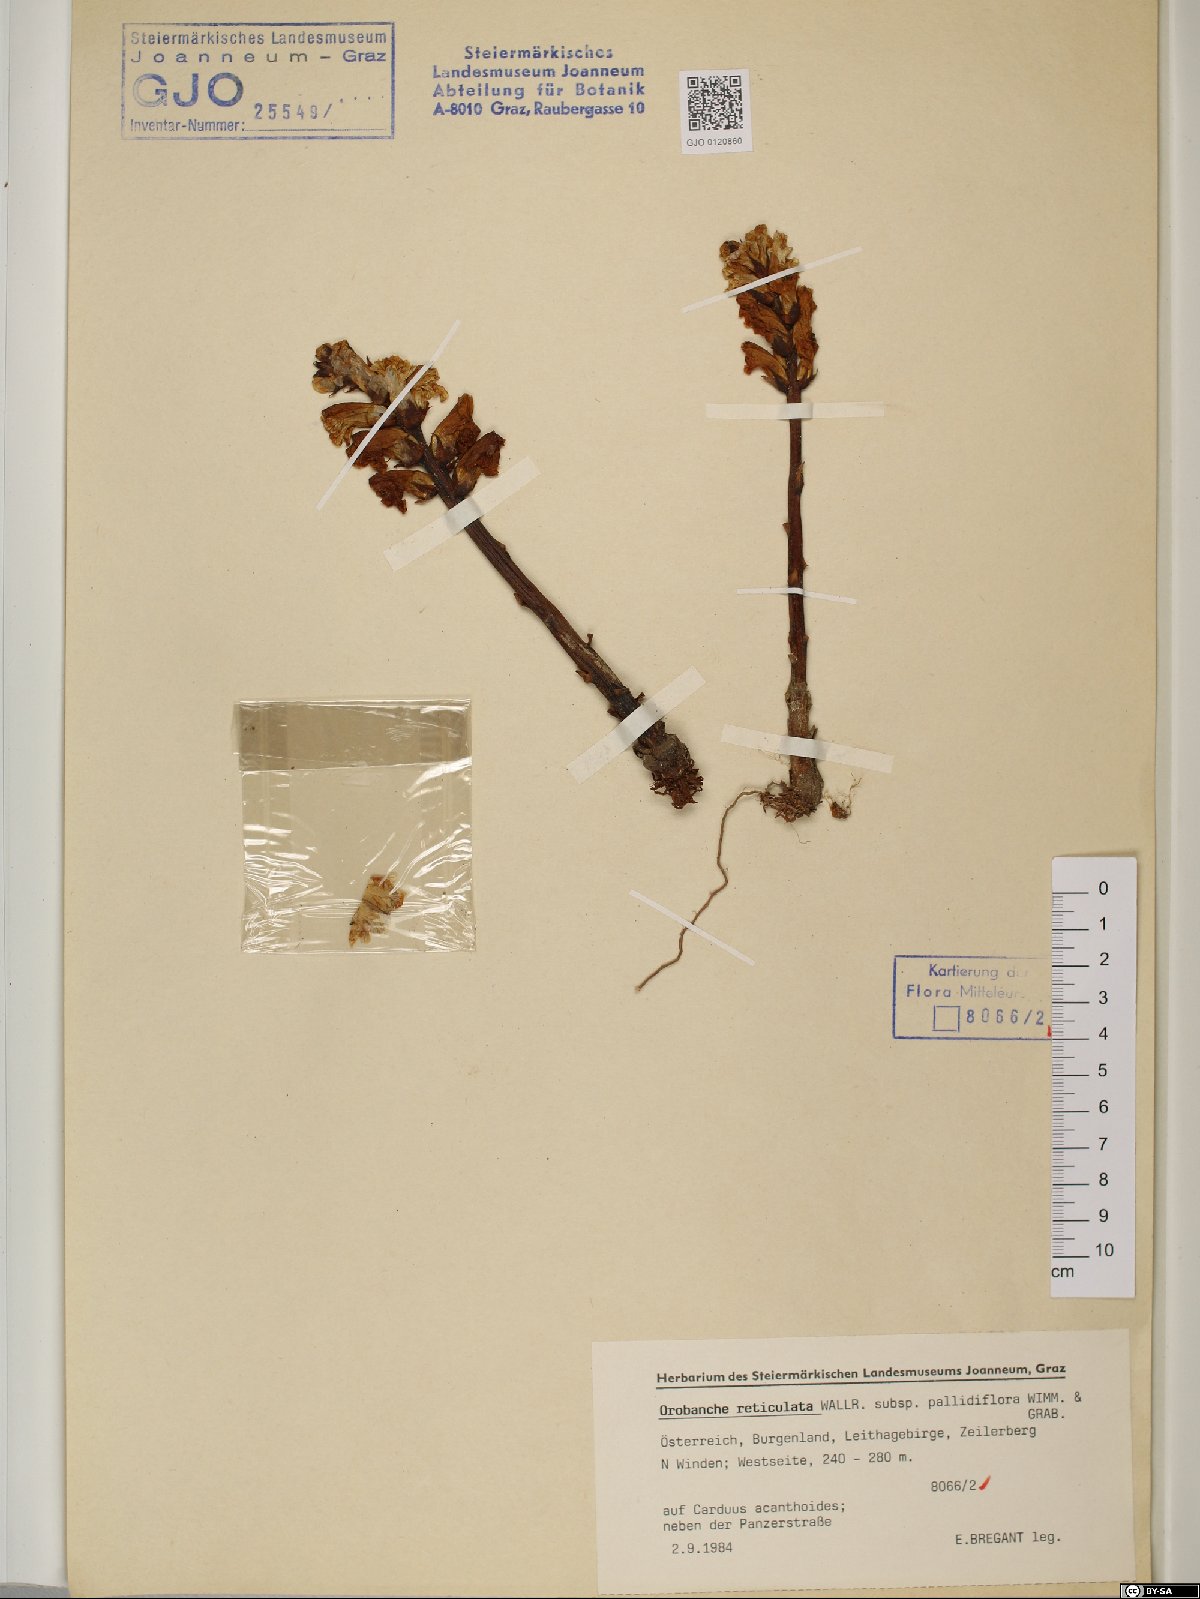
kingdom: Plantae
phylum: Tracheophyta
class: Magnoliopsida
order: Lamiales
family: Orobanchaceae
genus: Orobanche
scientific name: Orobanche reticulata
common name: Thistle broomrape
